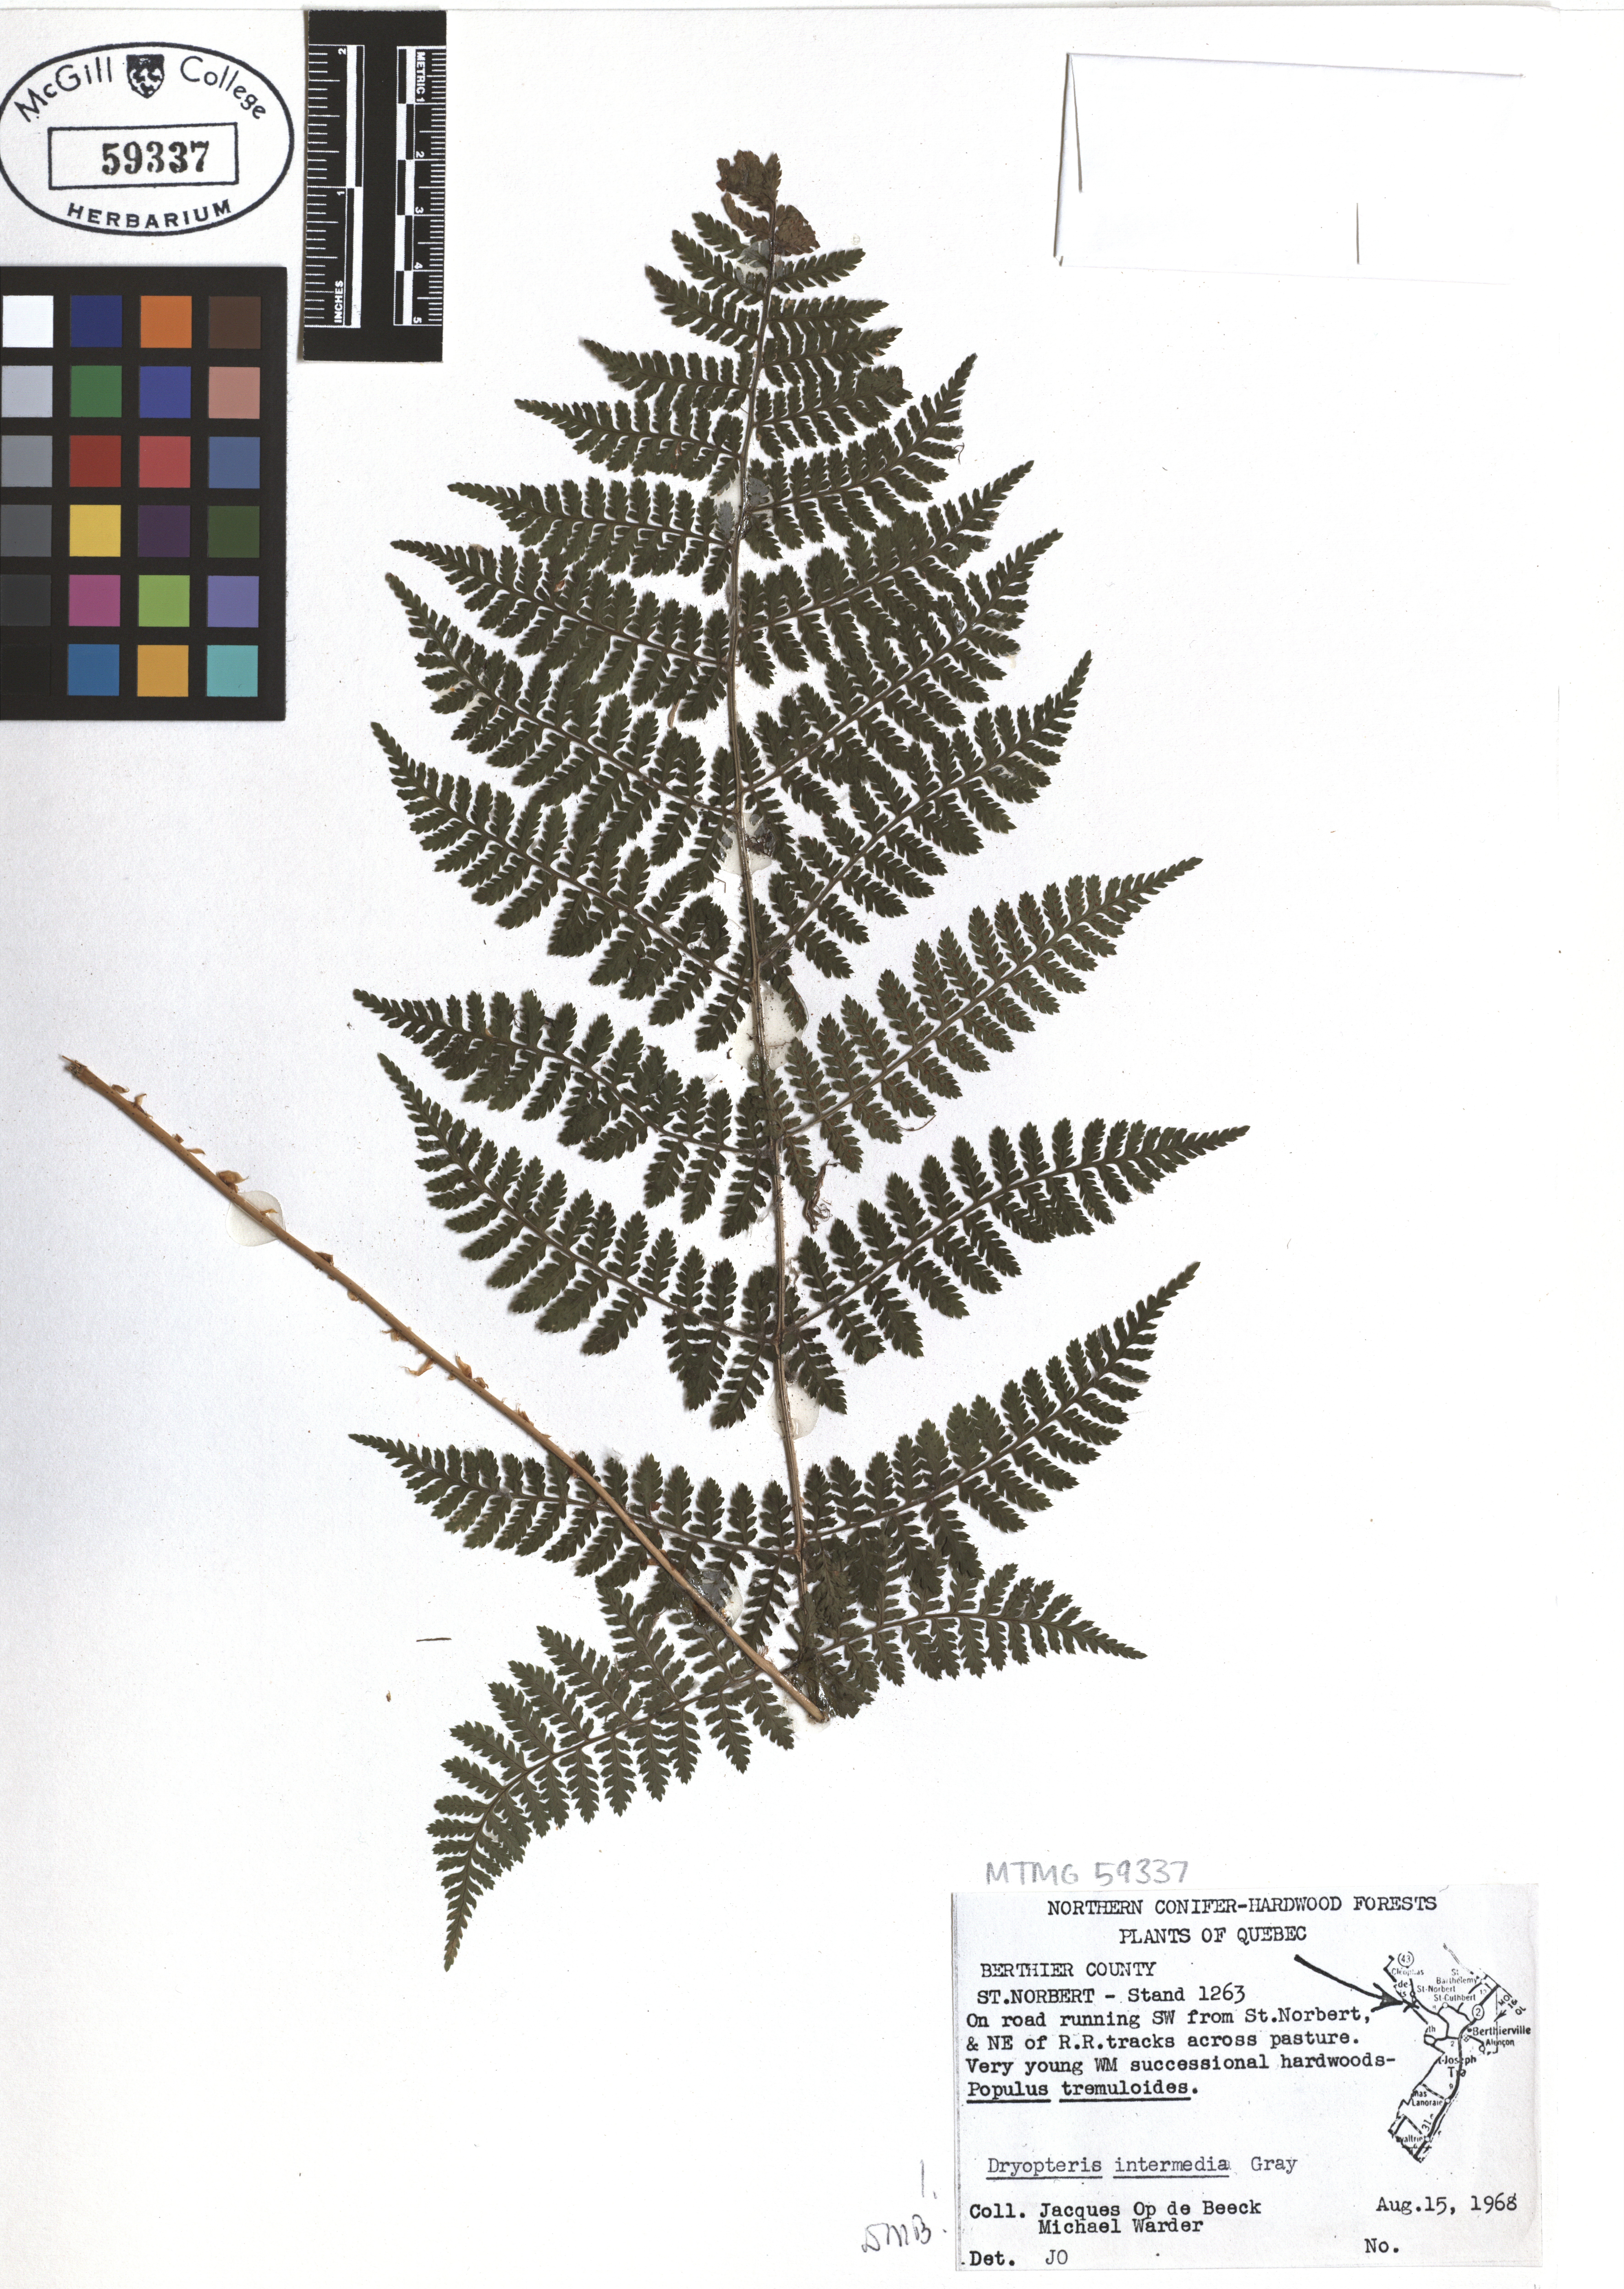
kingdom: Plantae
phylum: Tracheophyta
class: Polypodiopsida
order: Polypodiales
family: Dryopteridaceae
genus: Dryopteris
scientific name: Dryopteris intermedia
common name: Evergreen wood fern
